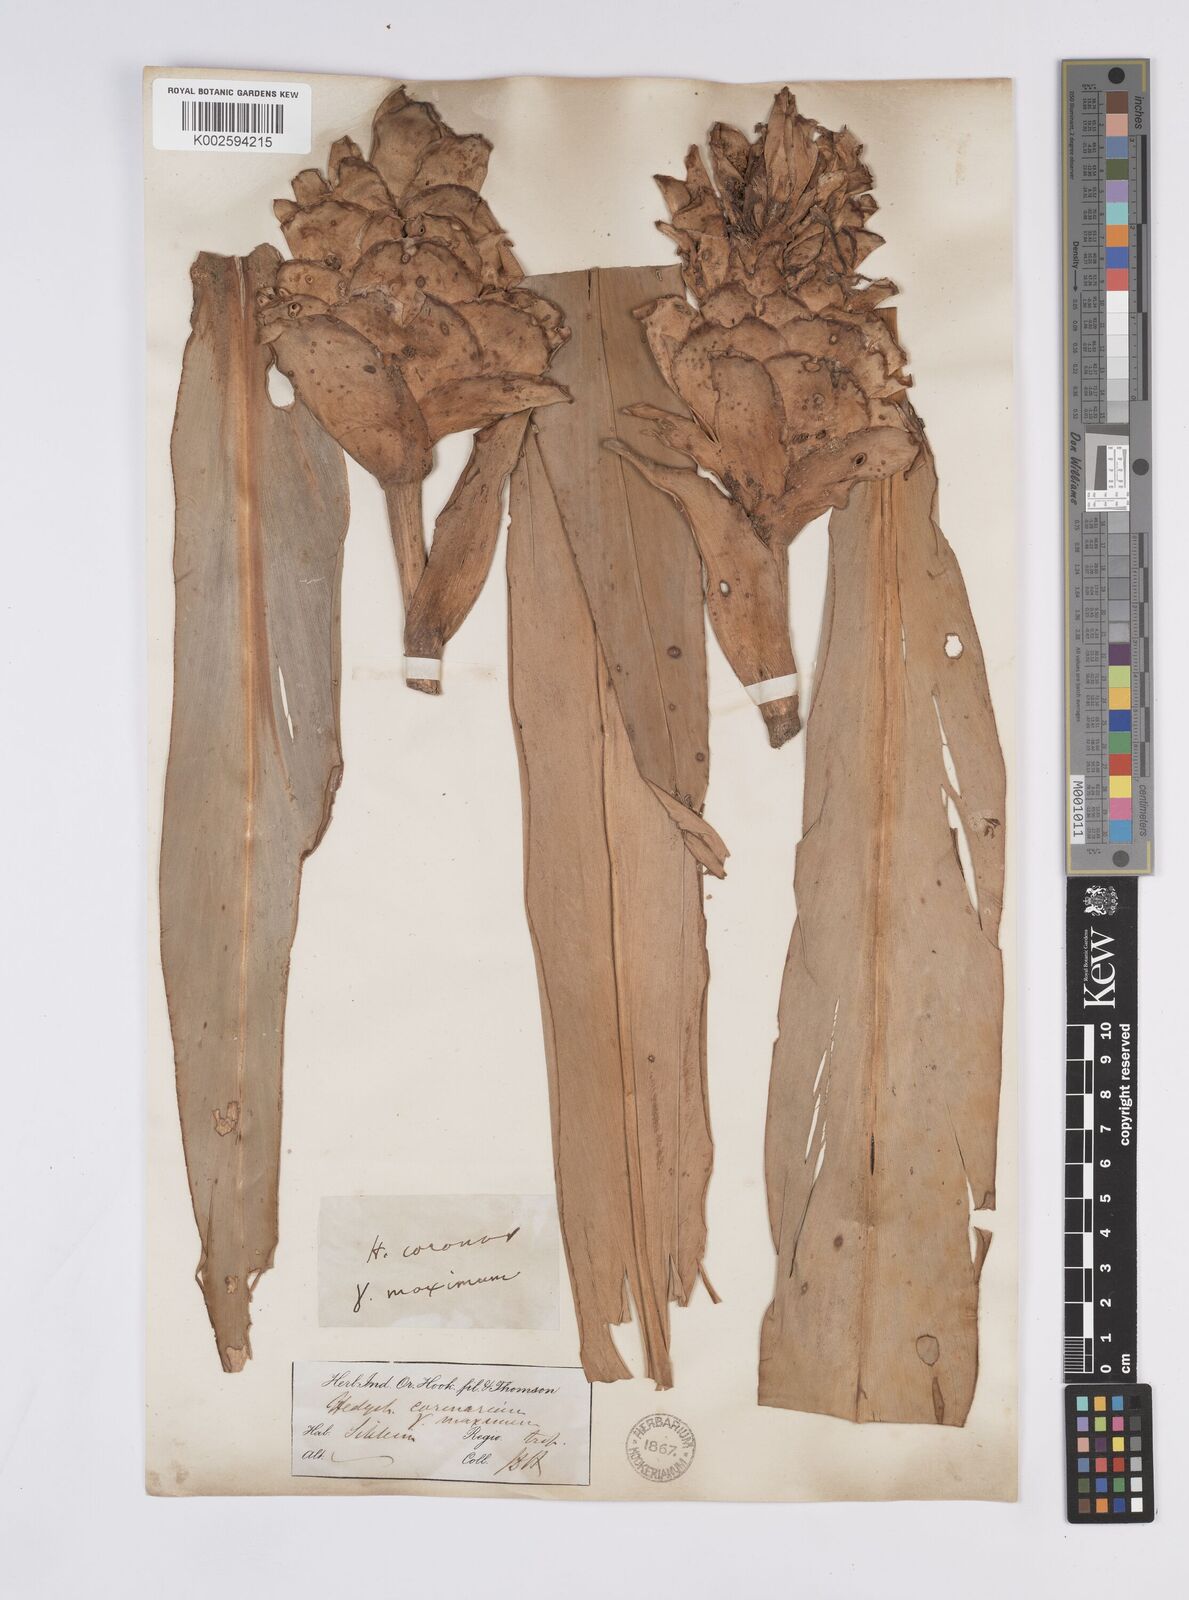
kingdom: Plantae
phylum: Tracheophyta
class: Liliopsida
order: Zingiberales
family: Zingiberaceae
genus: Hedychium
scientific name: Hedychium coronarium
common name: White garland-lily
